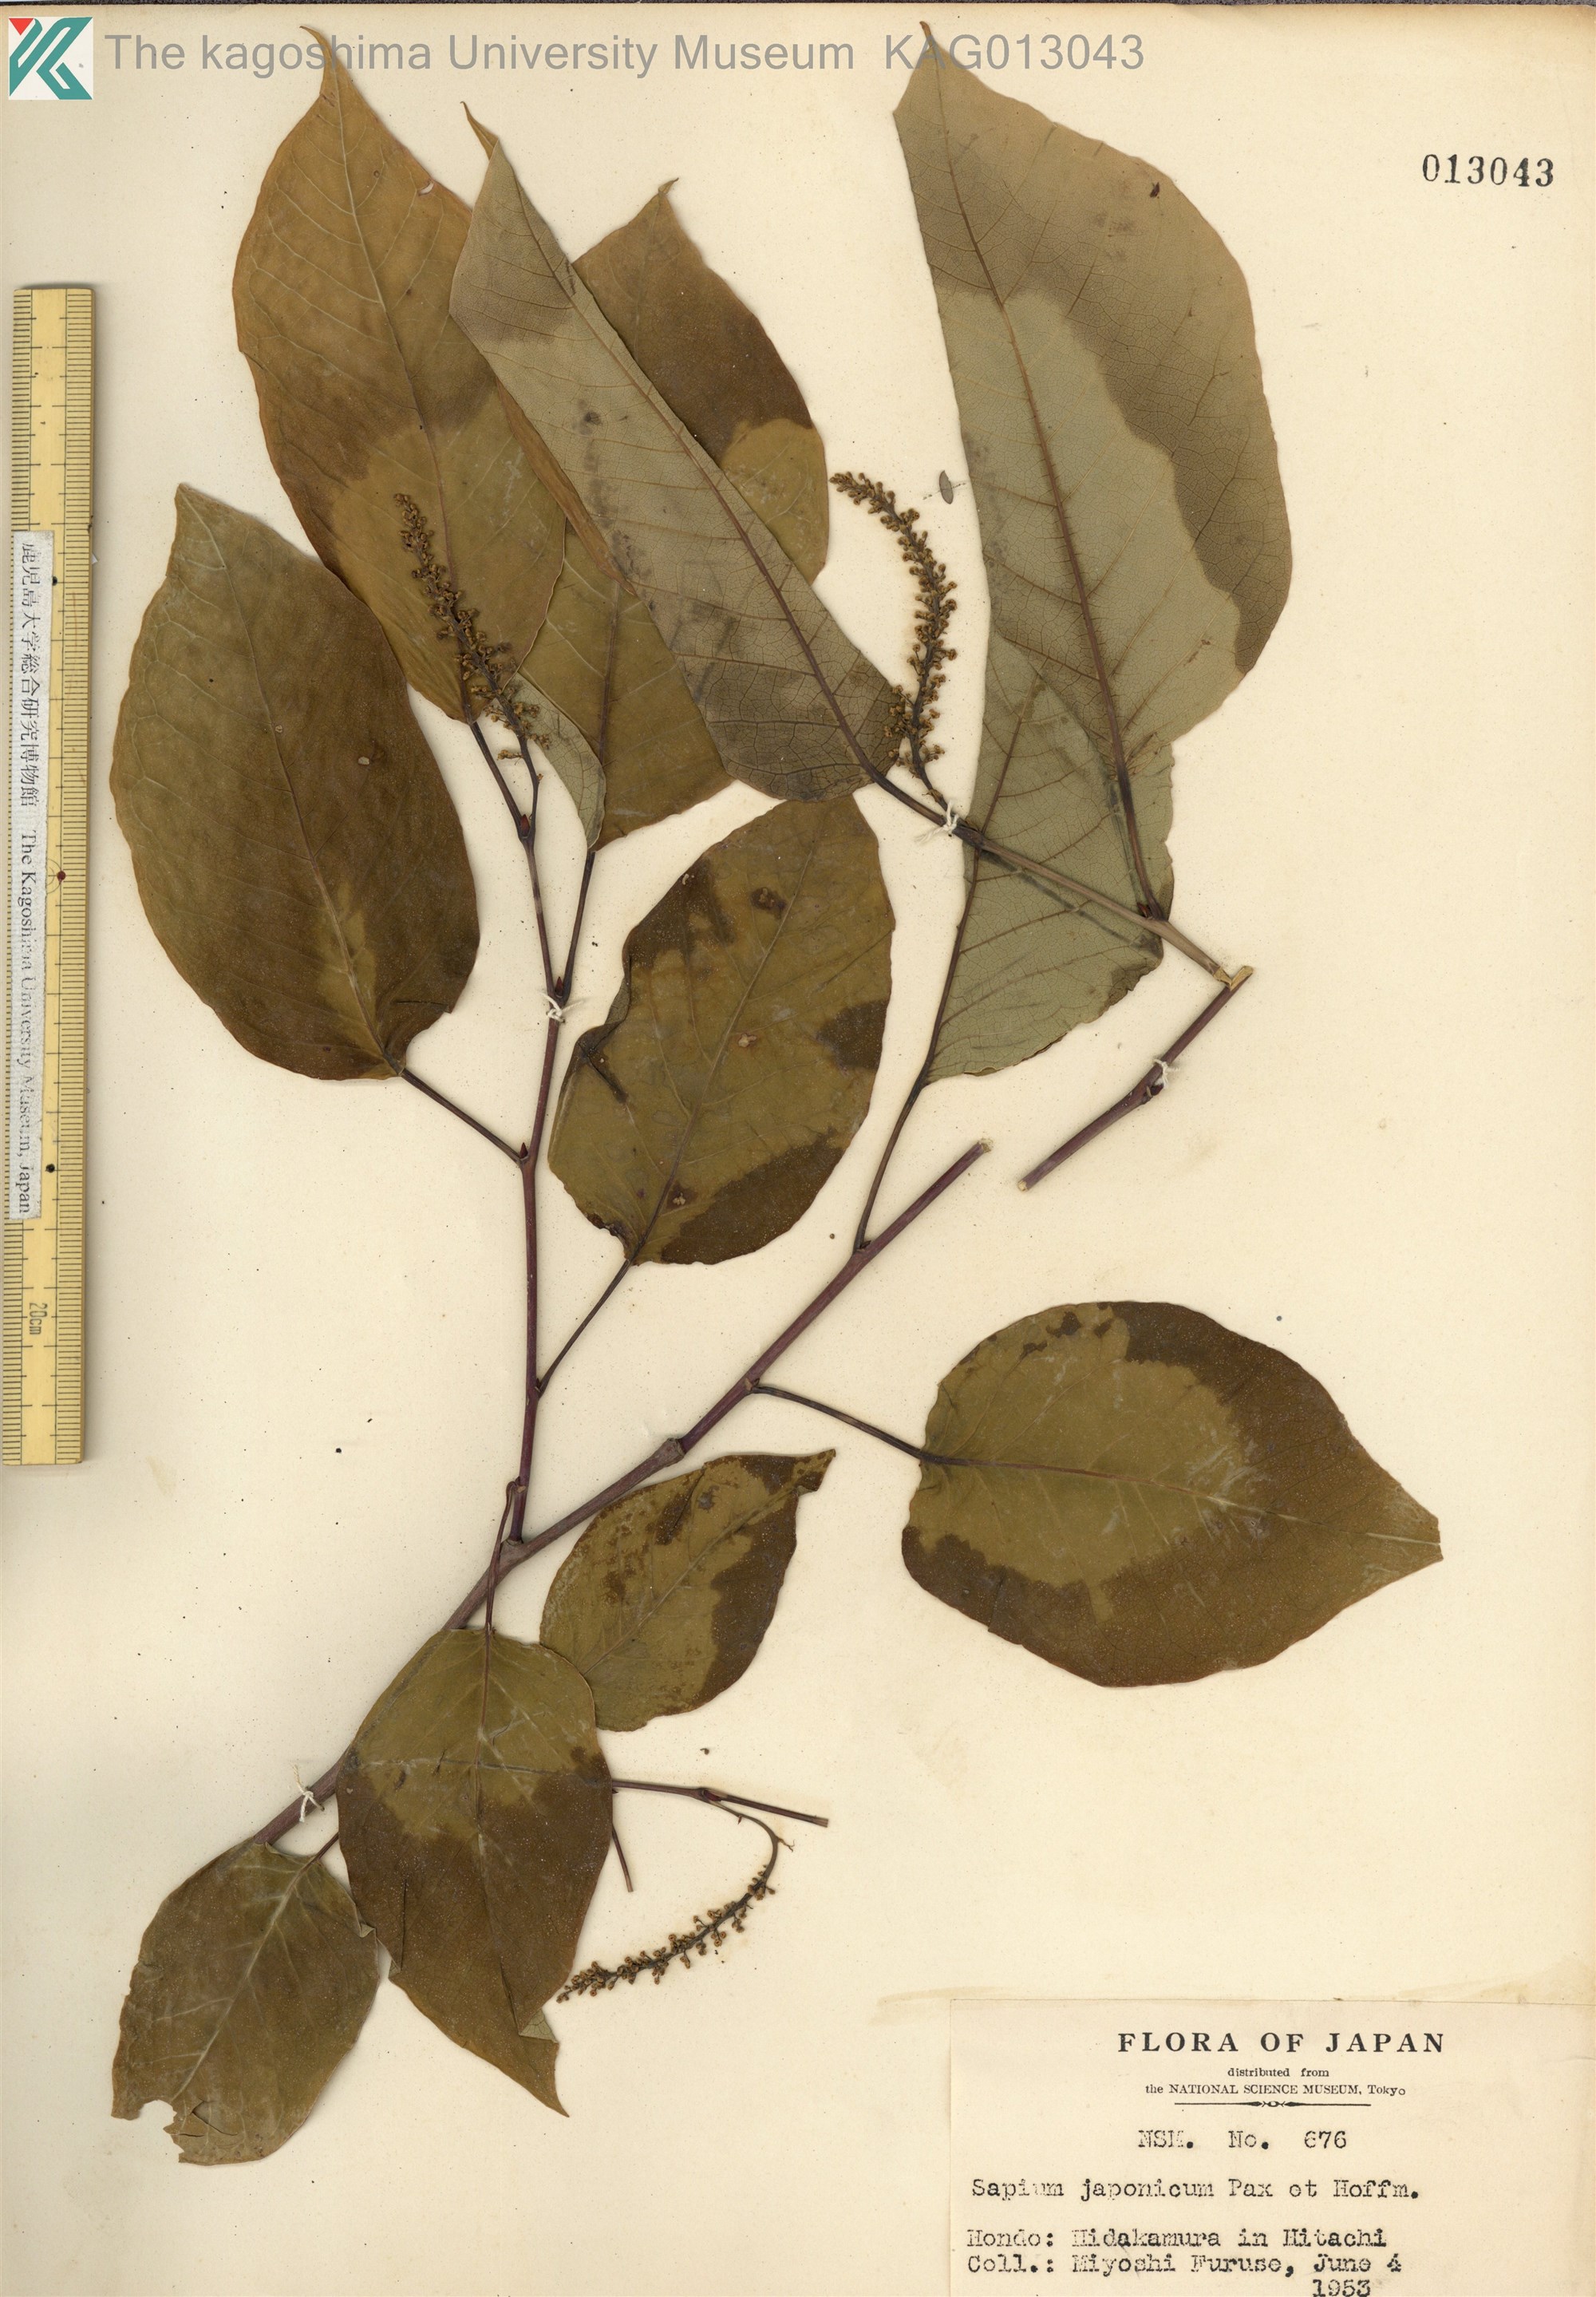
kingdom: Plantae
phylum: Tracheophyta
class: Magnoliopsida
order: Malpighiales
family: Euphorbiaceae
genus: Neoshirakia
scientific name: Neoshirakia japonica
